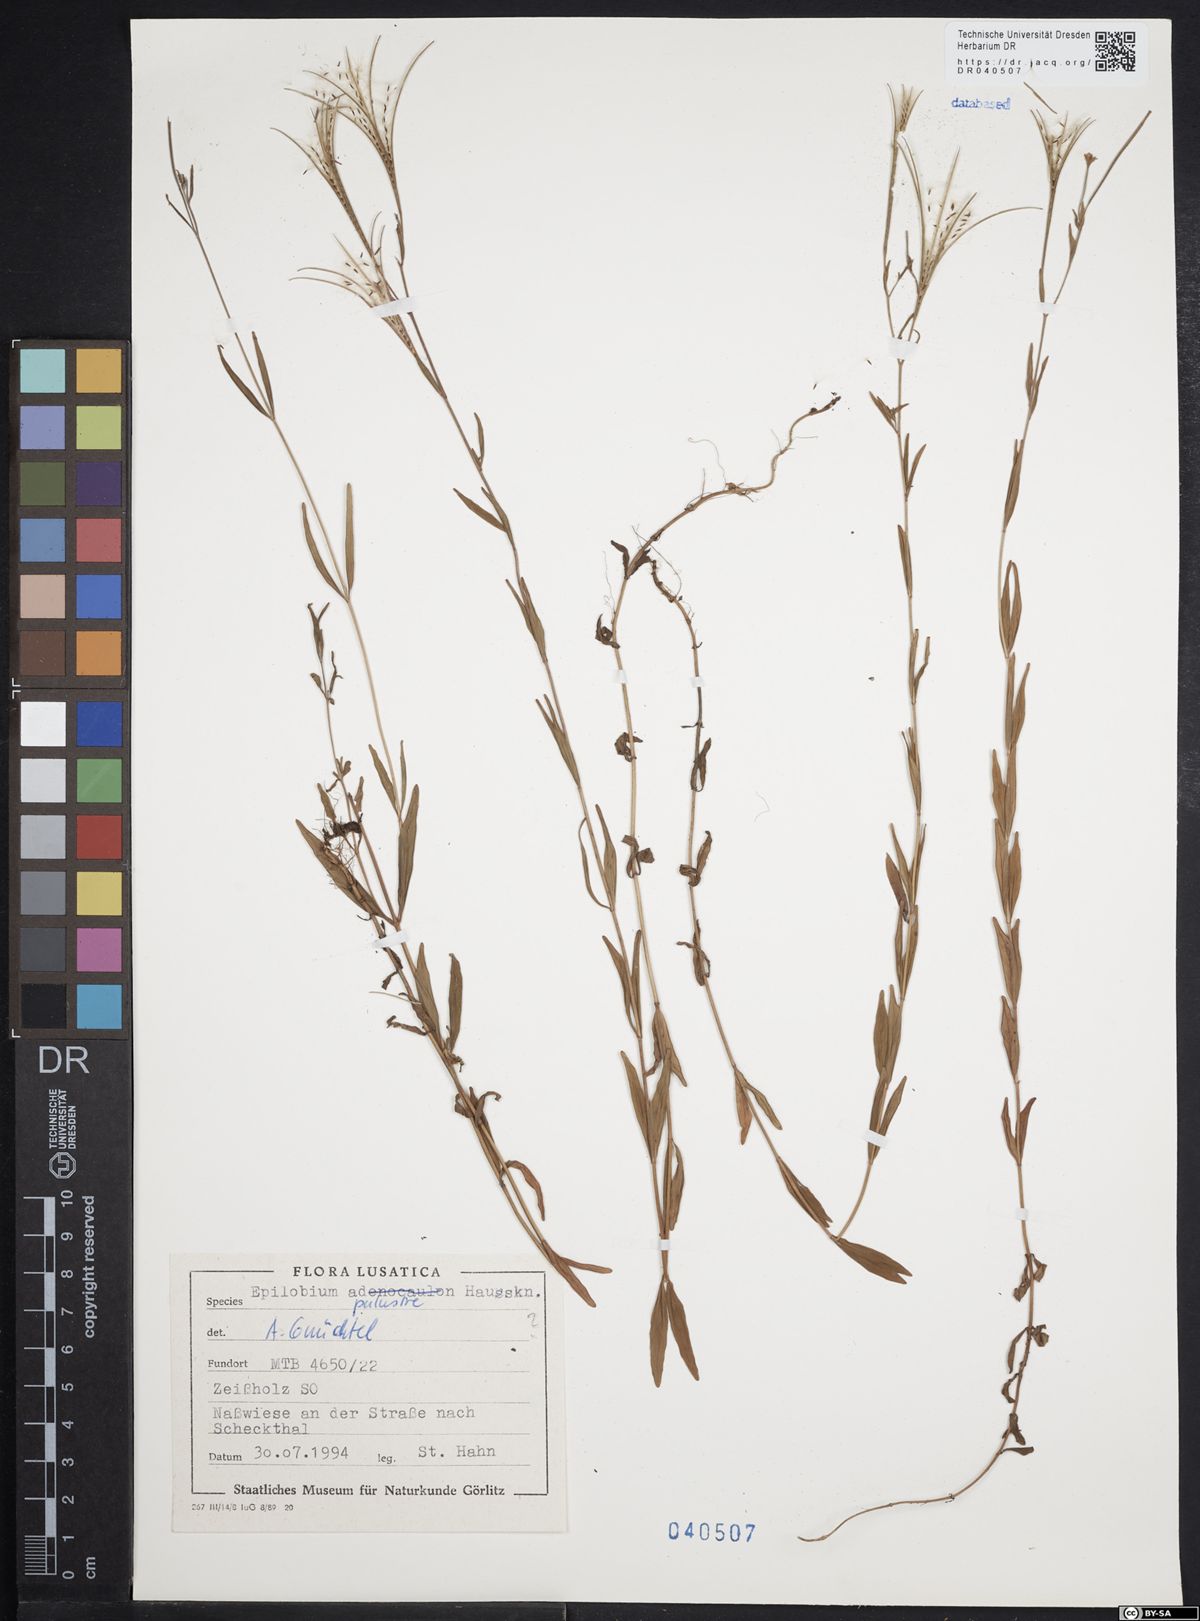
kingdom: Plantae
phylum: Tracheophyta
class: Magnoliopsida
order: Myrtales
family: Onagraceae
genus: Epilobium
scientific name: Epilobium palustre
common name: Marsh willowherb
